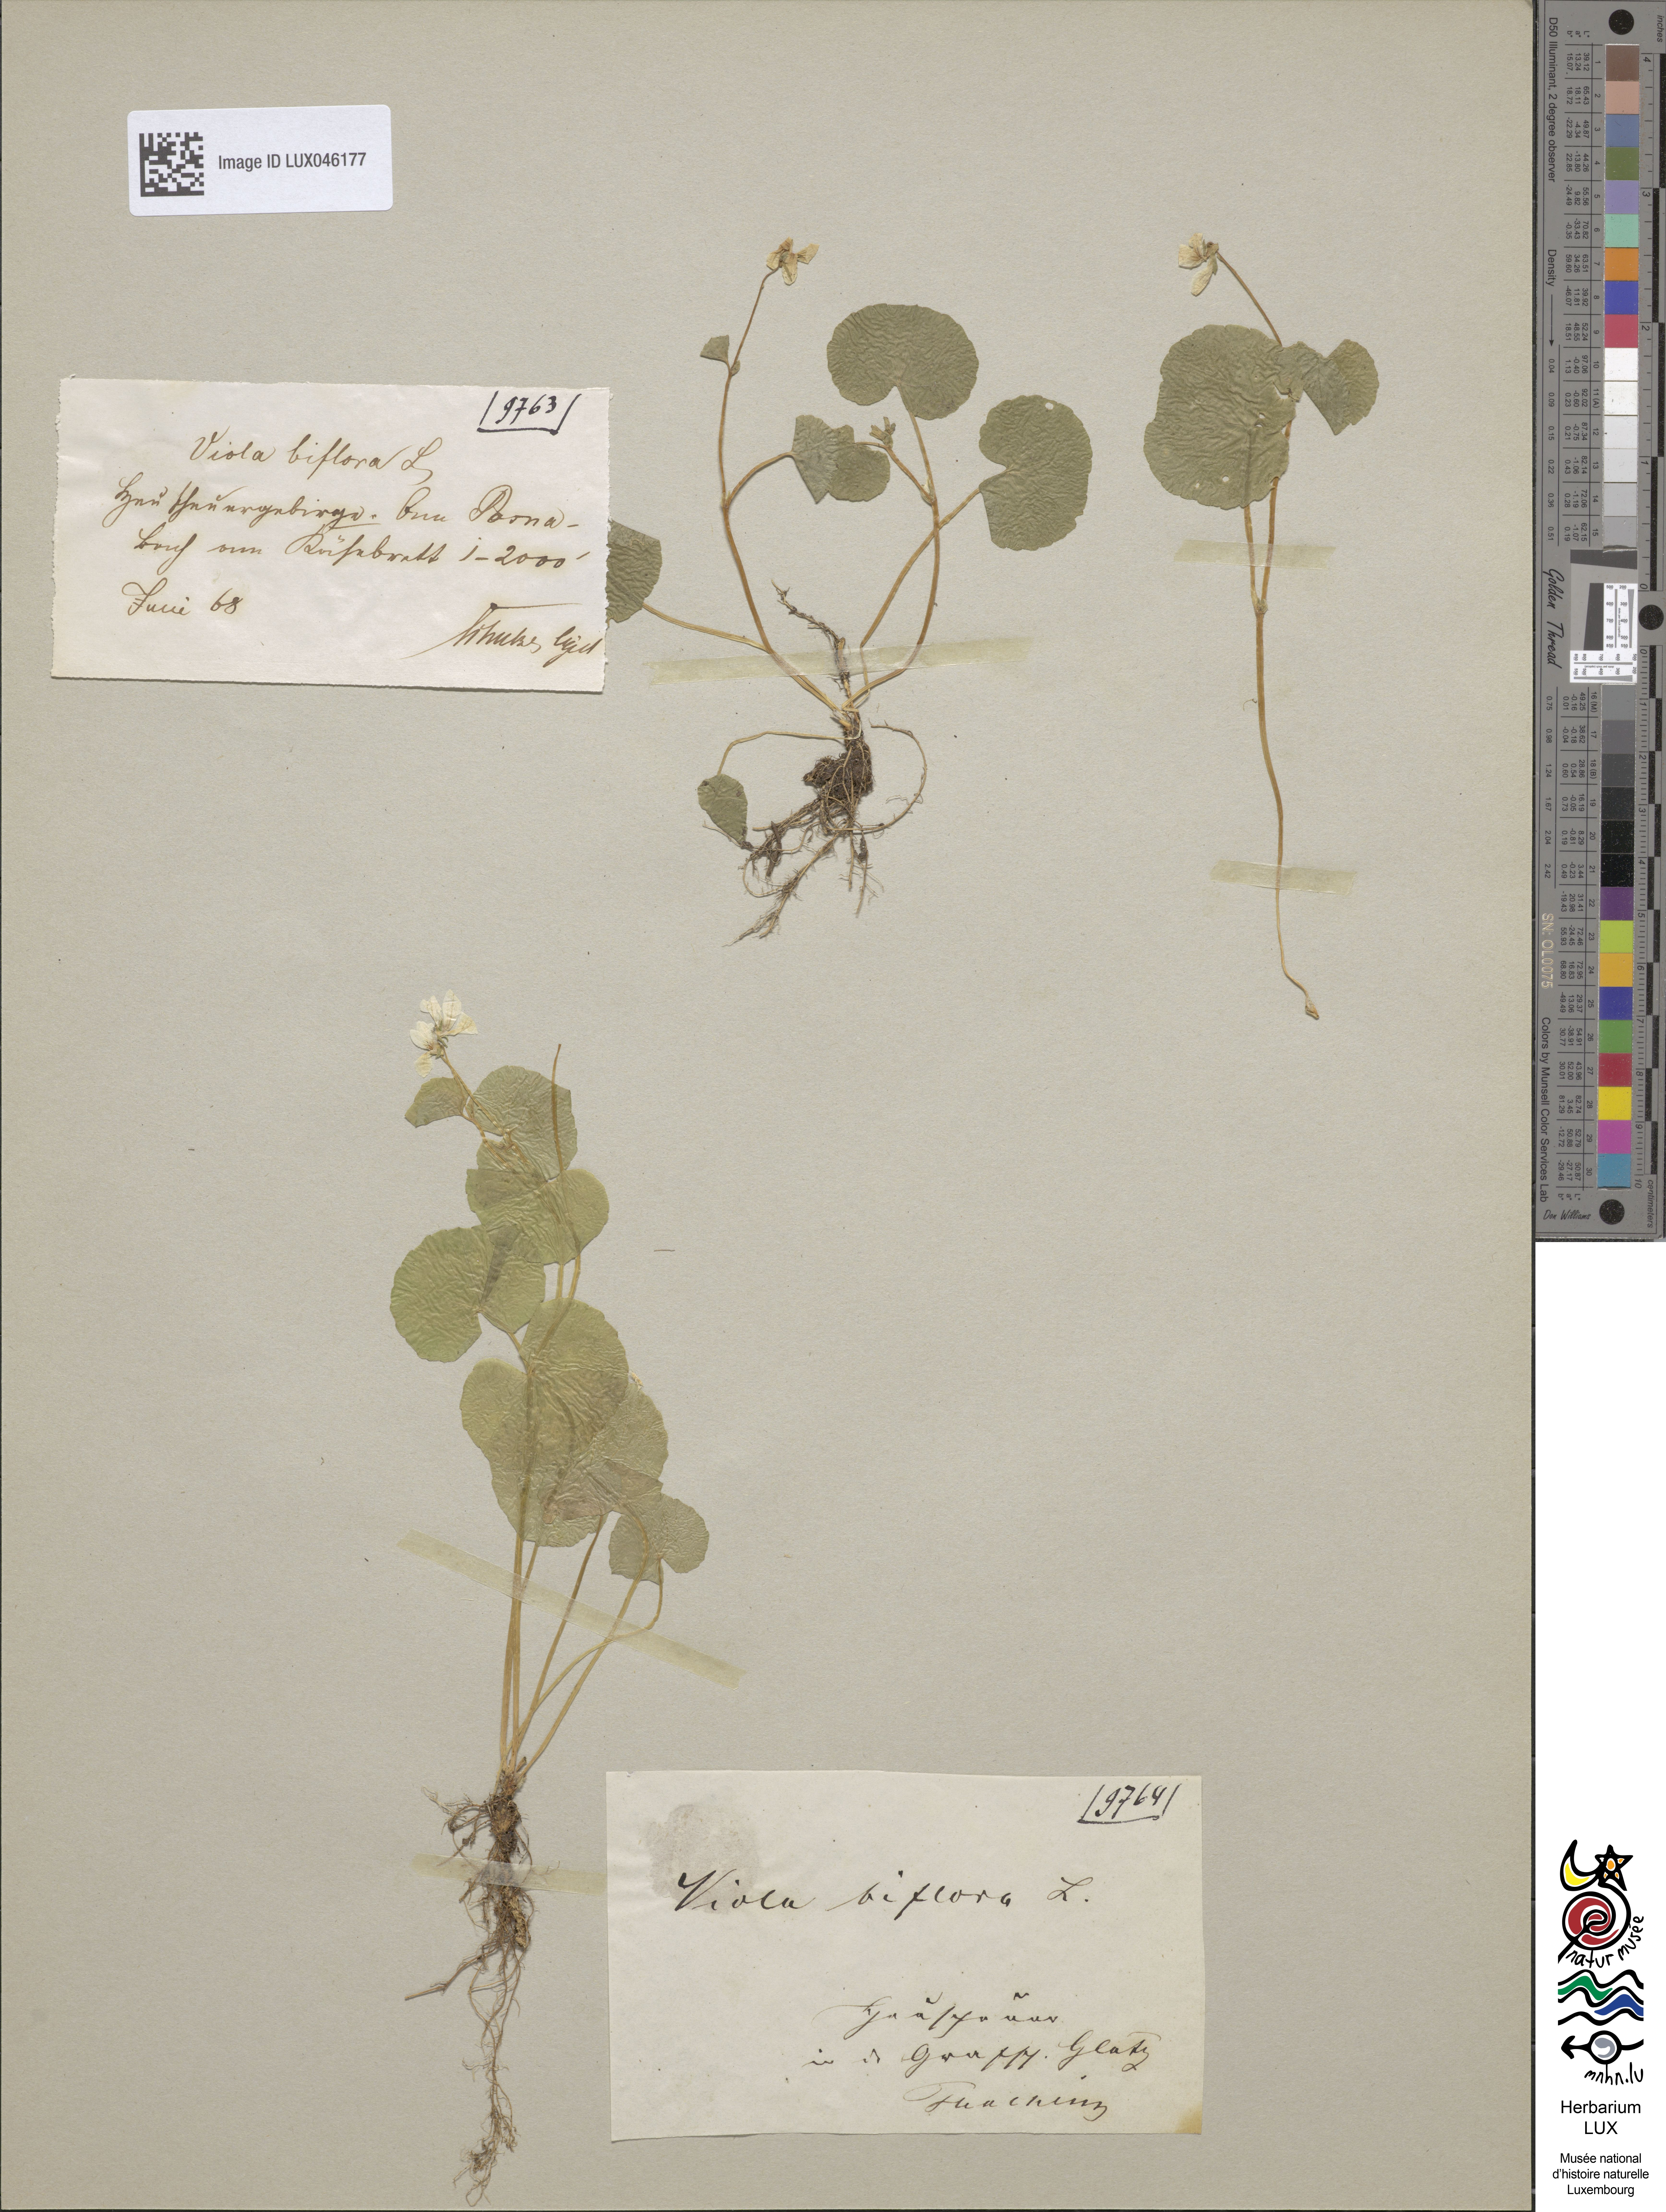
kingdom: Plantae
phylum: Tracheophyta
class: Magnoliopsida
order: Malpighiales
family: Violaceae
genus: Viola
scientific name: Viola biflora
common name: Alpine yellow violet
